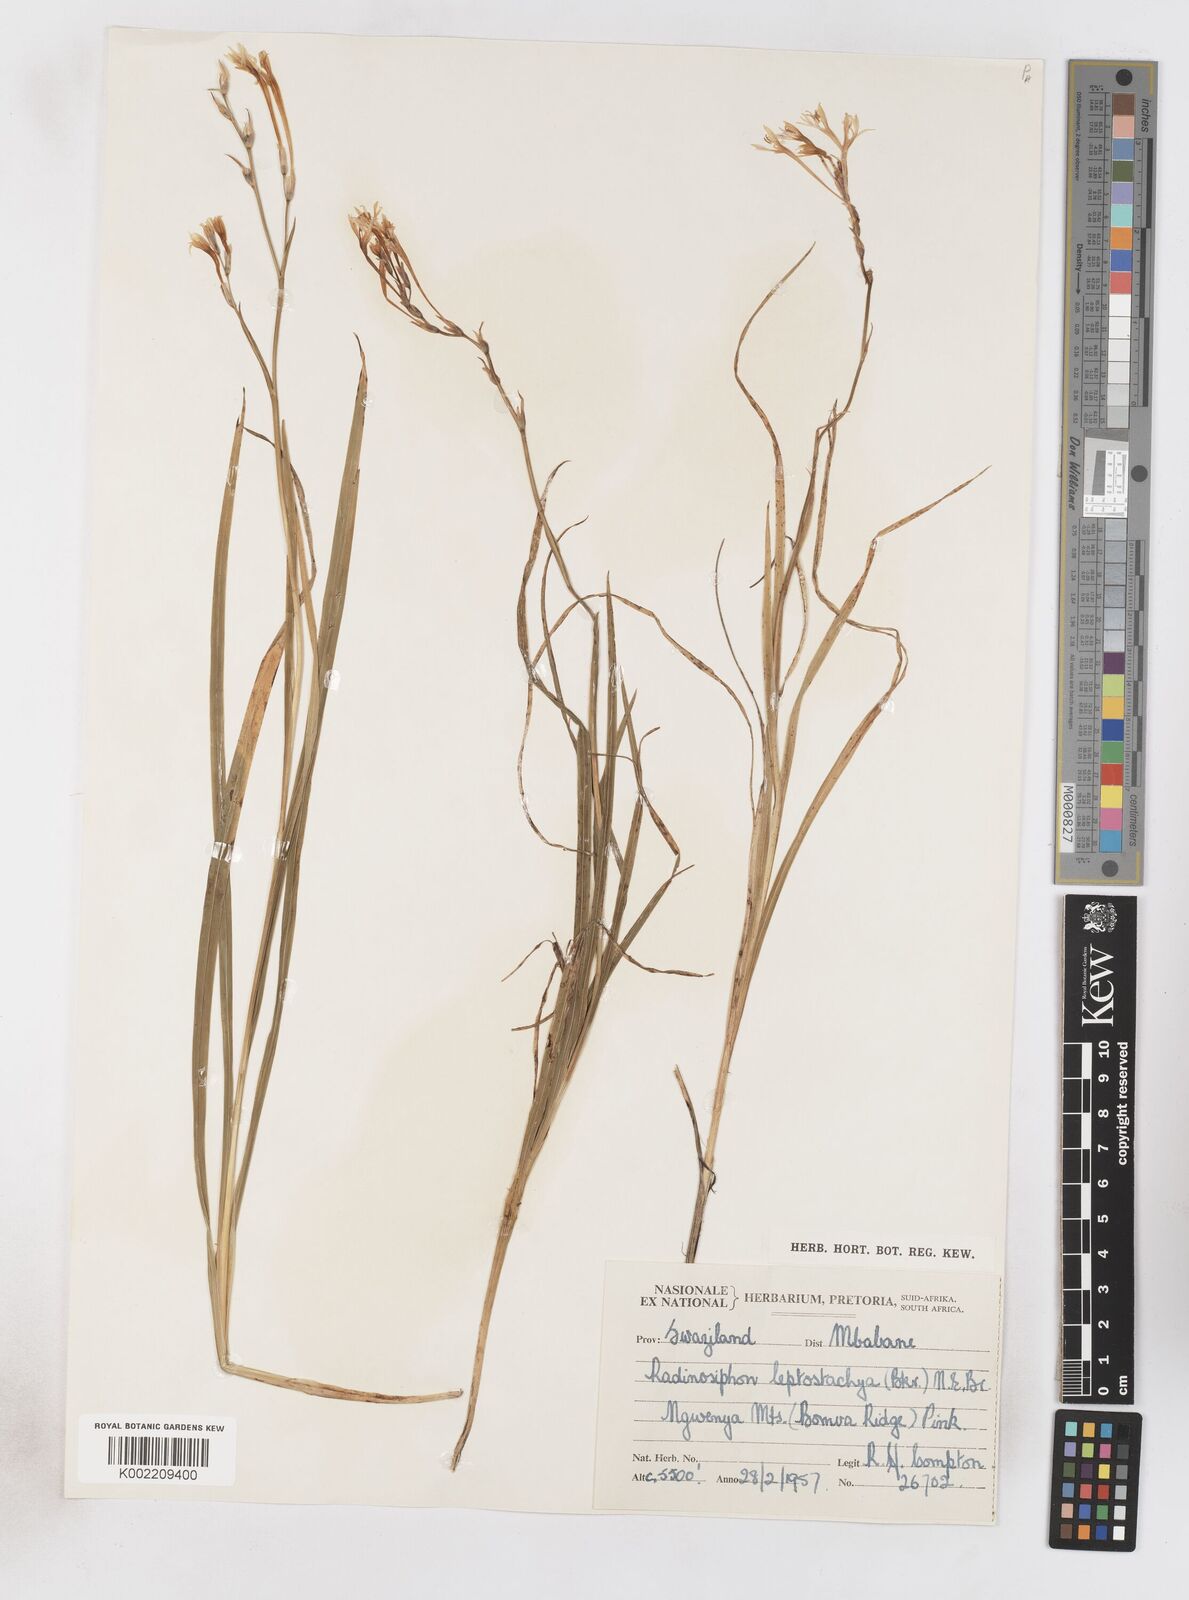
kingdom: Plantae
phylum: Tracheophyta
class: Liliopsida
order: Asparagales
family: Iridaceae
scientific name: Iridaceae
